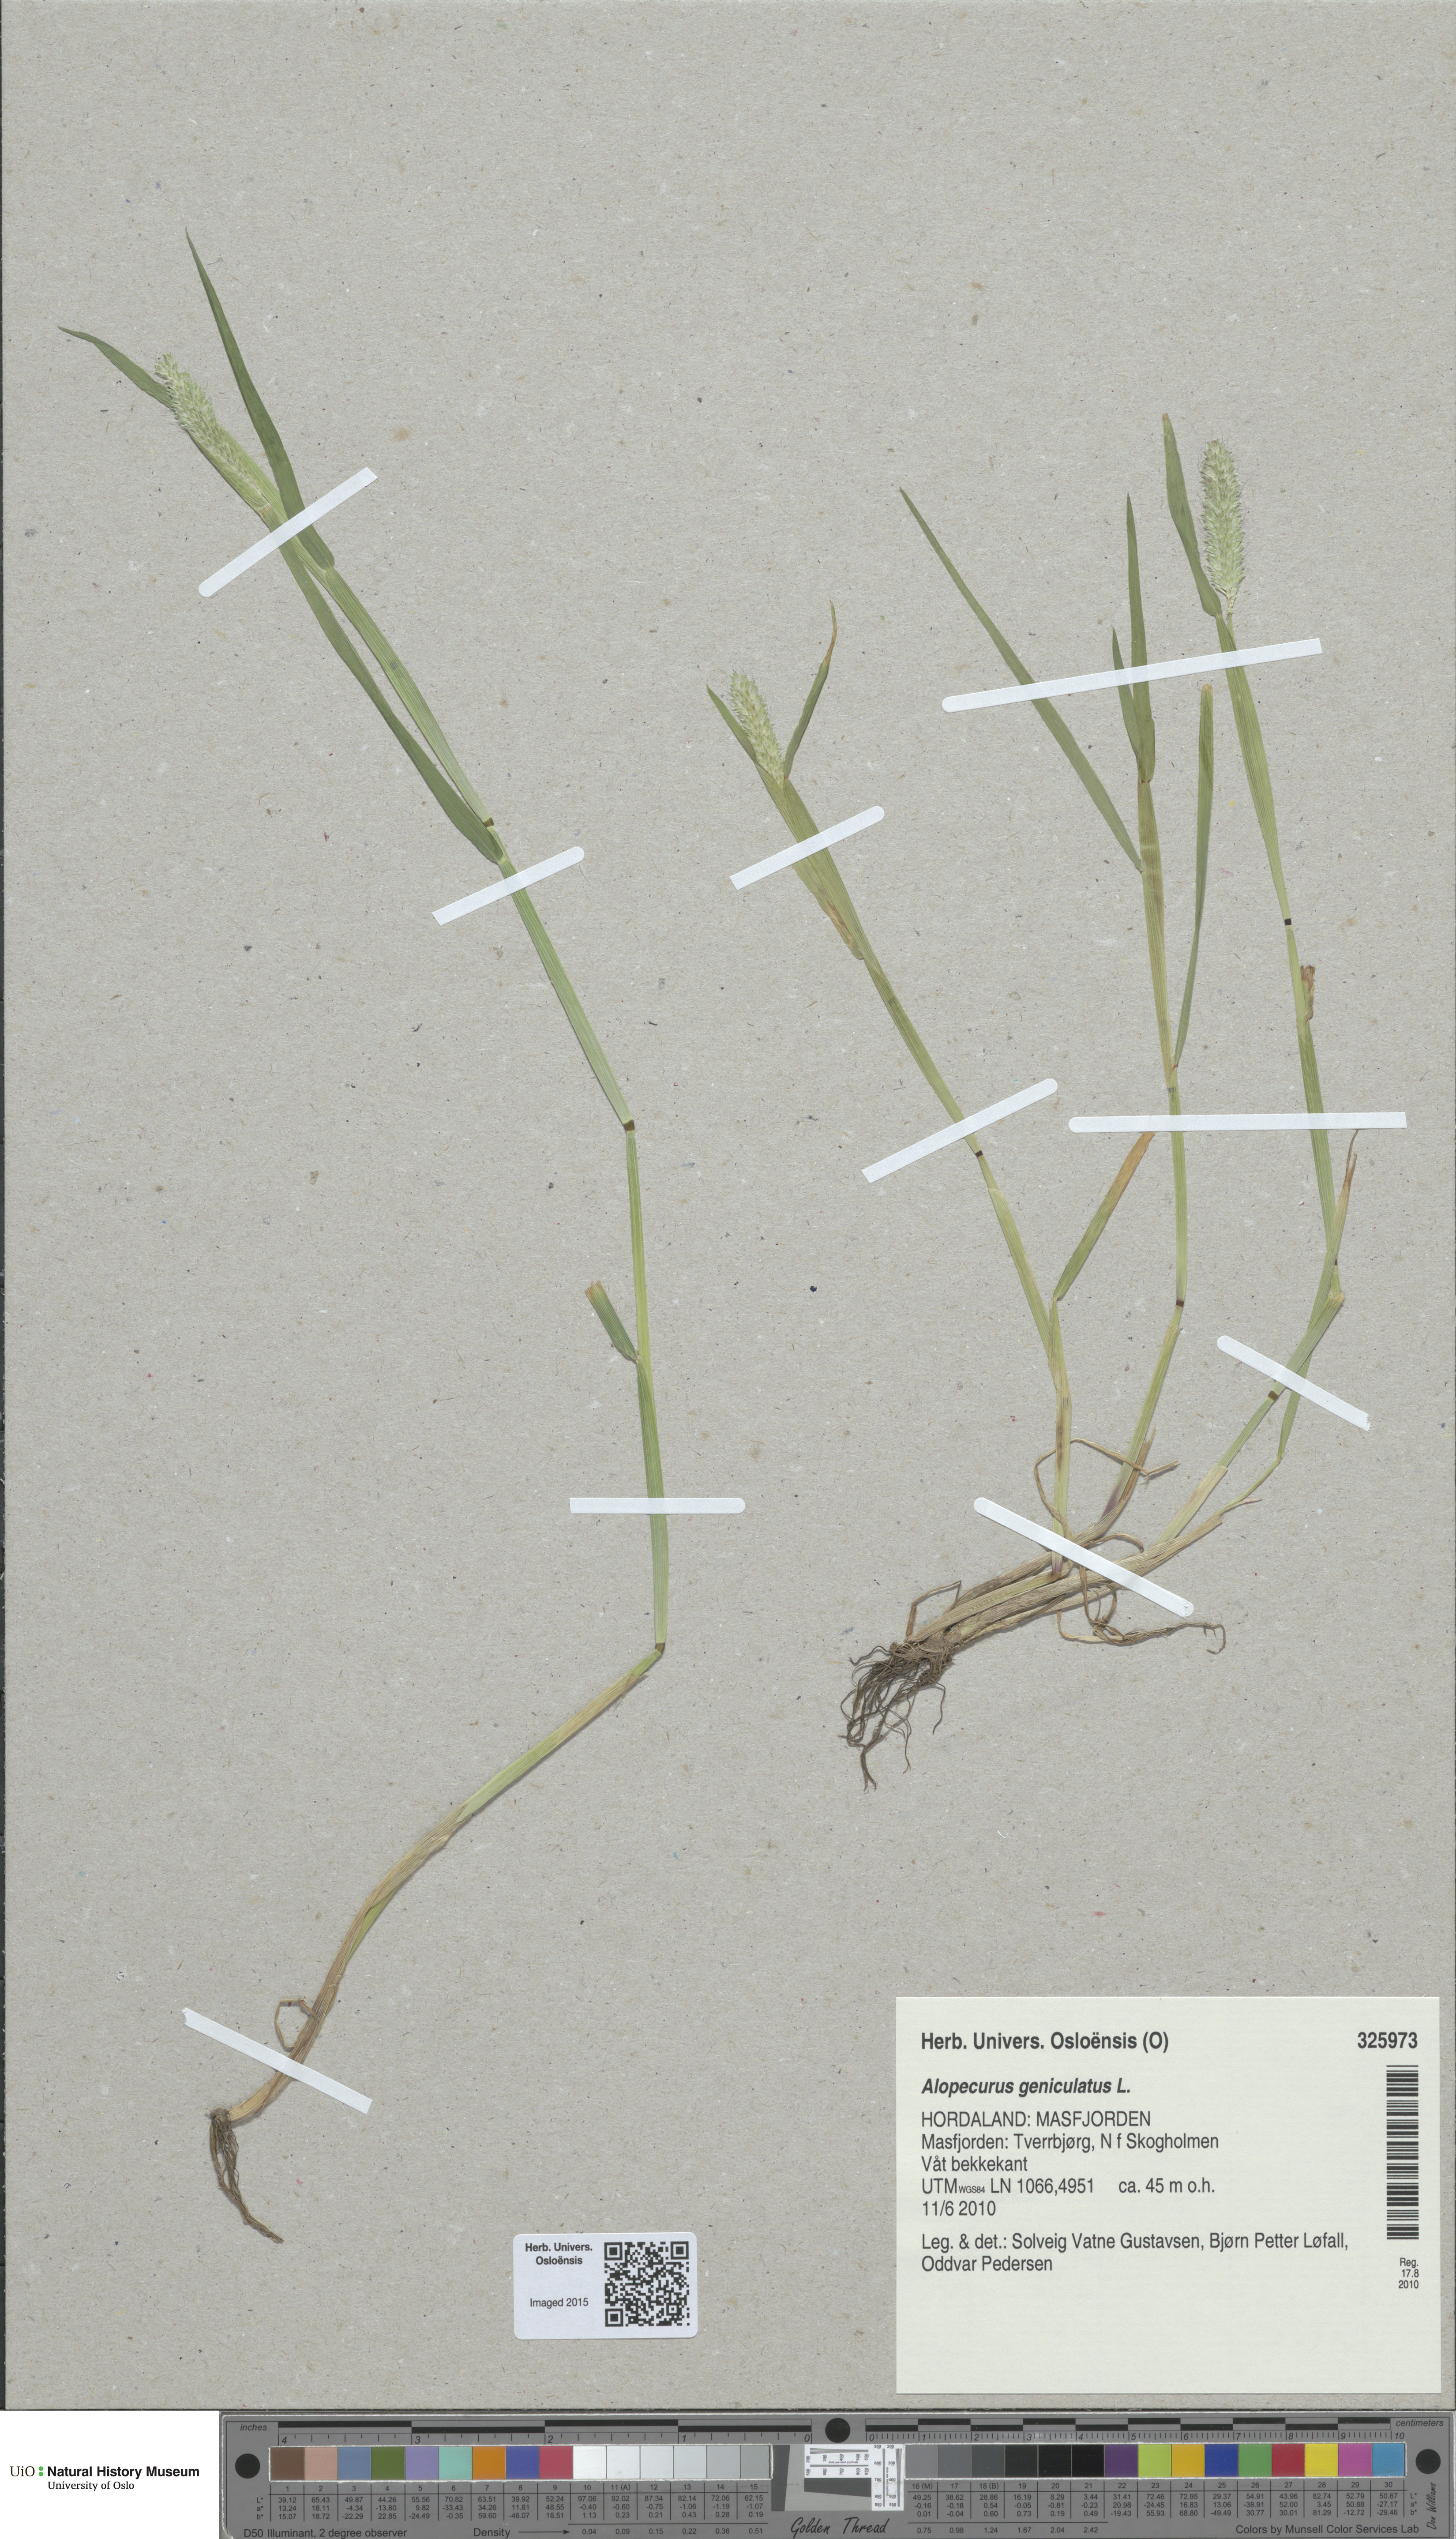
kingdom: Plantae
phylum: Tracheophyta
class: Liliopsida
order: Poales
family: Poaceae
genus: Alopecurus
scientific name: Alopecurus geniculatus
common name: Water foxtail
